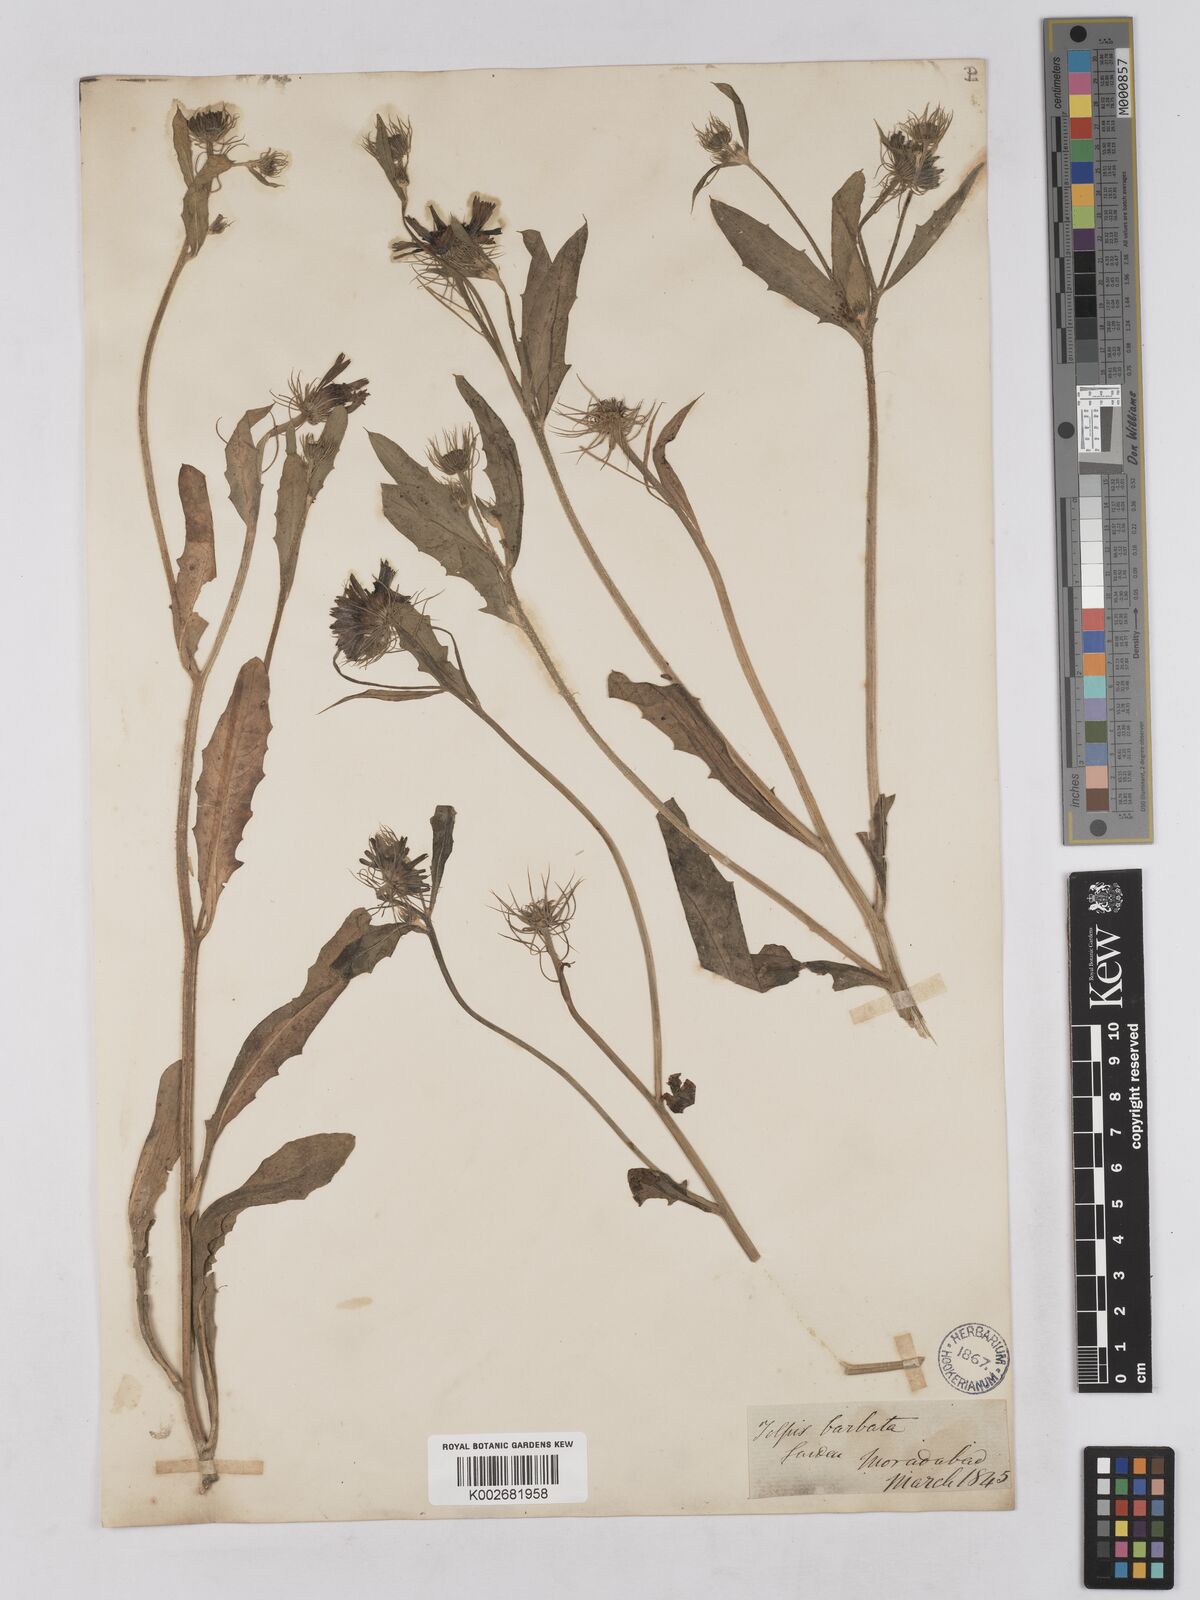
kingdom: Plantae
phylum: Tracheophyta
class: Magnoliopsida
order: Asterales
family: Asteraceae
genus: Tolpis
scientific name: Tolpis barbata
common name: Yellow hawkweed
